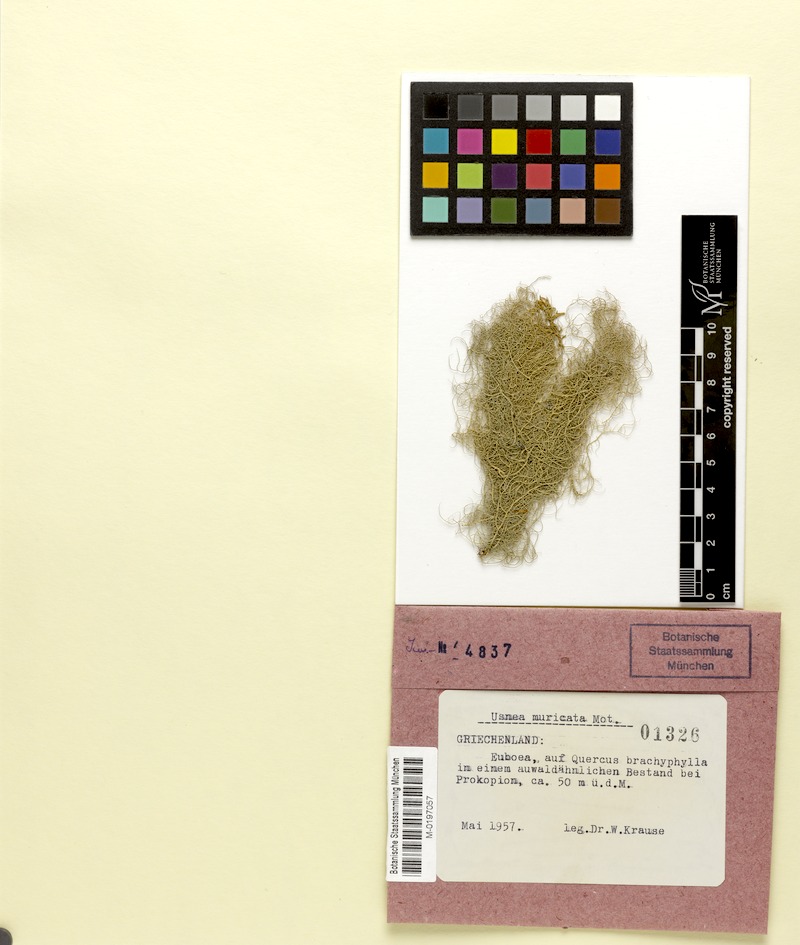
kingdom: Fungi
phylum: Ascomycota
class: Lecanoromycetes
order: Lecanorales
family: Parmeliaceae
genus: Usnea
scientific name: Usnea filipendula
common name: Fishbone beard lichen
